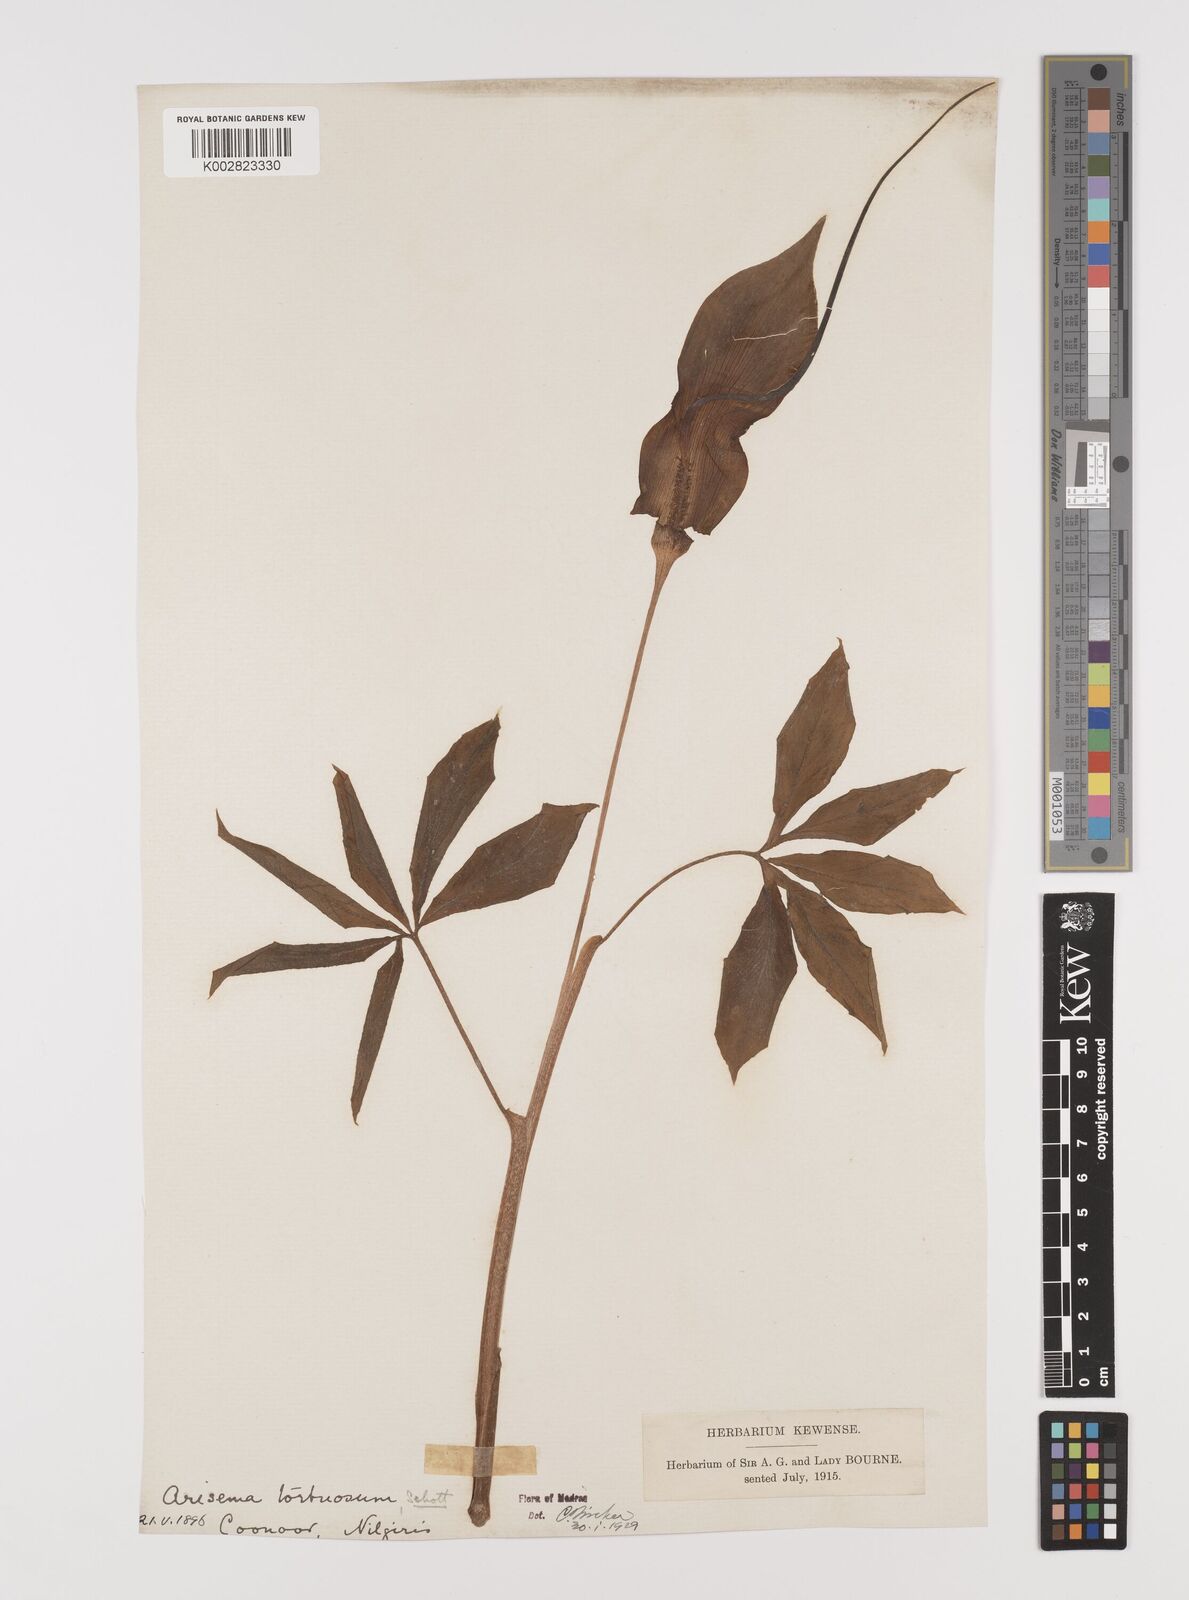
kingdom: Plantae
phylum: Tracheophyta
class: Liliopsida
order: Alismatales
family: Araceae
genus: Arisaema
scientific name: Arisaema tortuosum
